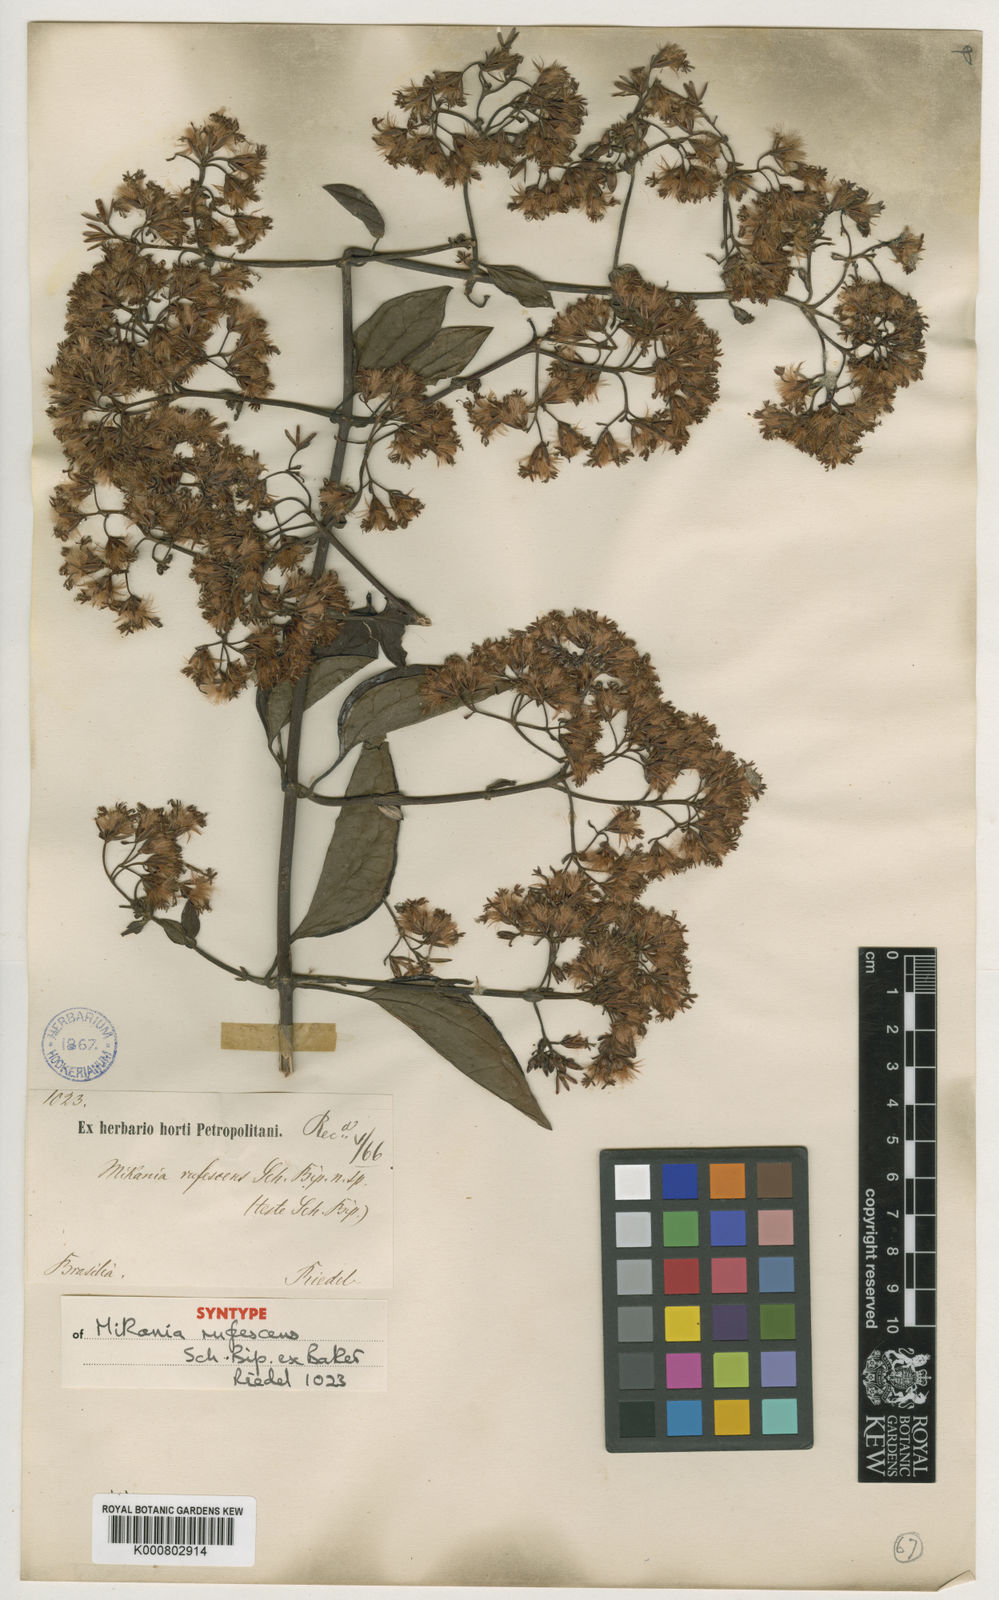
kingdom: Plantae
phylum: Tracheophyta
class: Magnoliopsida
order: Asterales
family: Asteraceae
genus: Mikania
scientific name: Mikania rufescens
